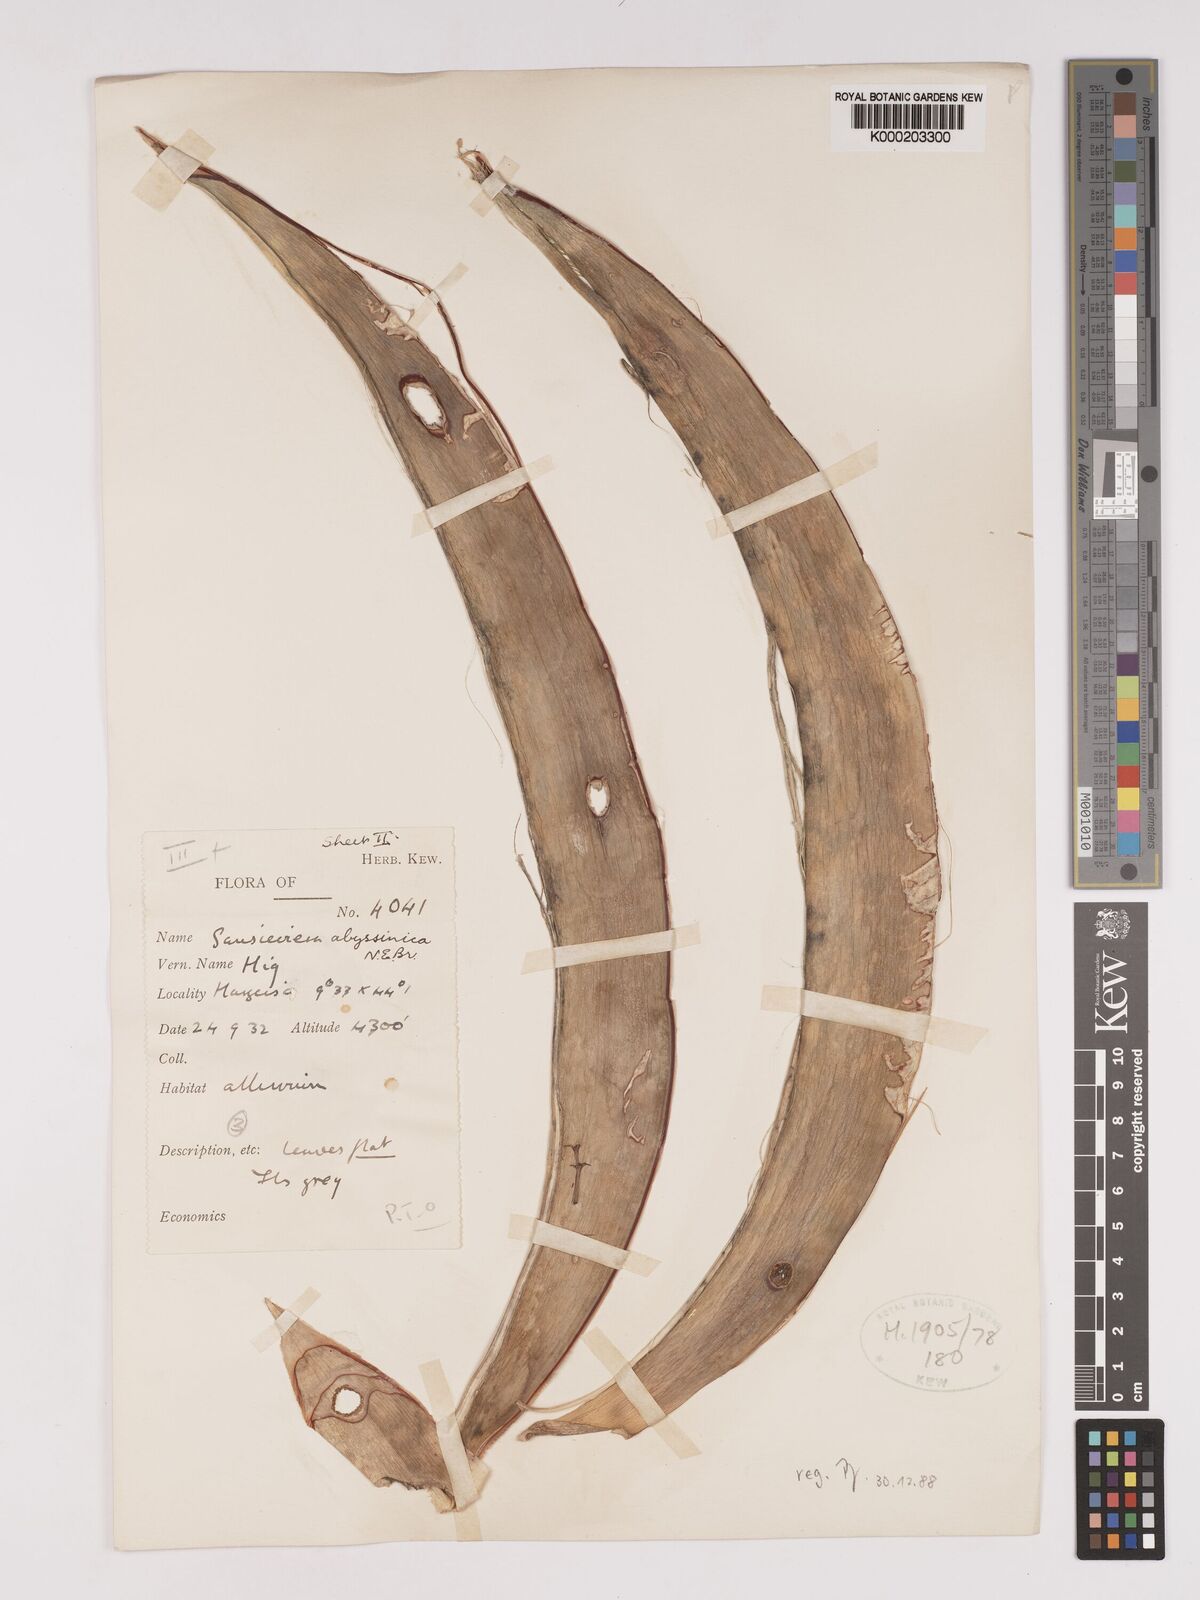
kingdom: Plantae
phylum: Tracheophyta
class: Liliopsida
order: Asparagales
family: Asparagaceae
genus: Dracaena
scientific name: Dracaena forskaliana
